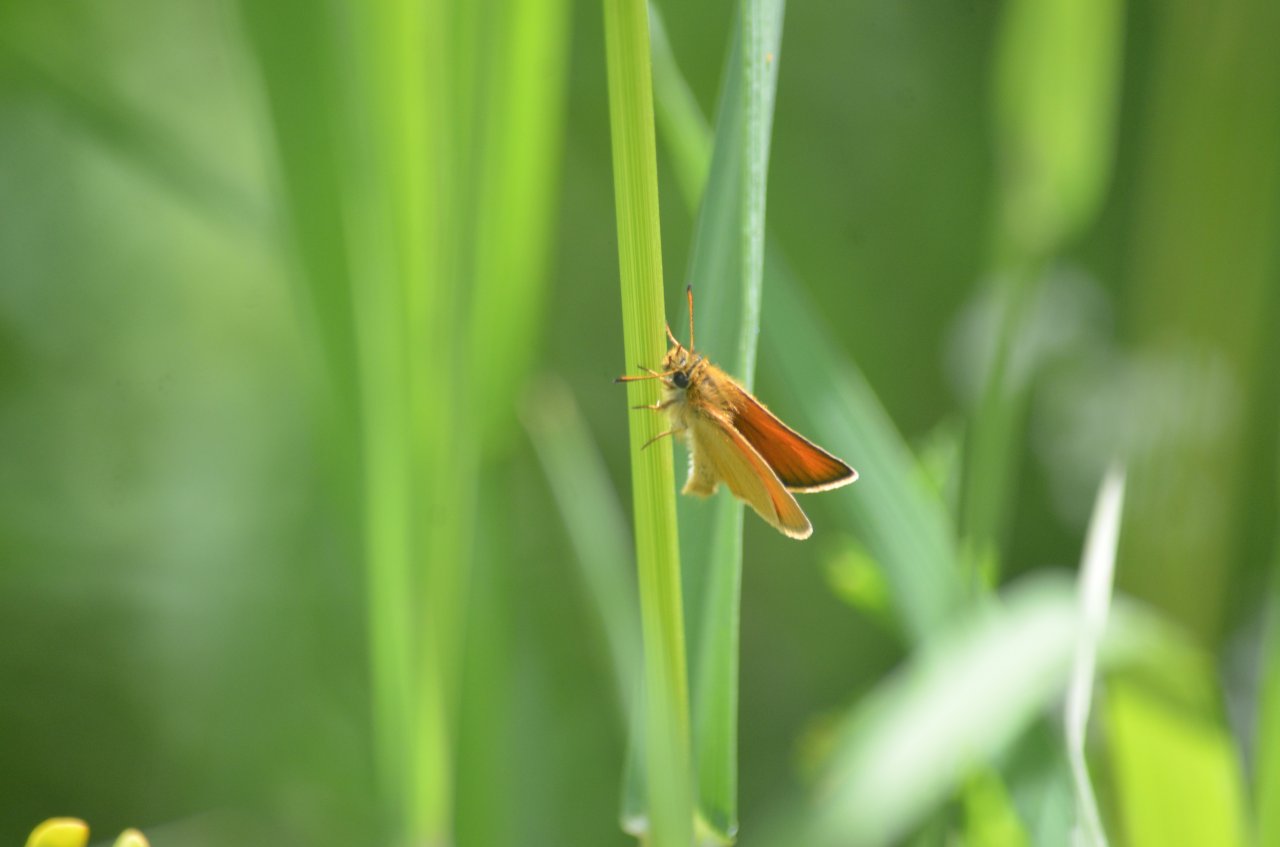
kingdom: Animalia
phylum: Arthropoda
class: Insecta
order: Lepidoptera
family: Hesperiidae
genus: Thymelicus
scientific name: Thymelicus lineola
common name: European Skipper
